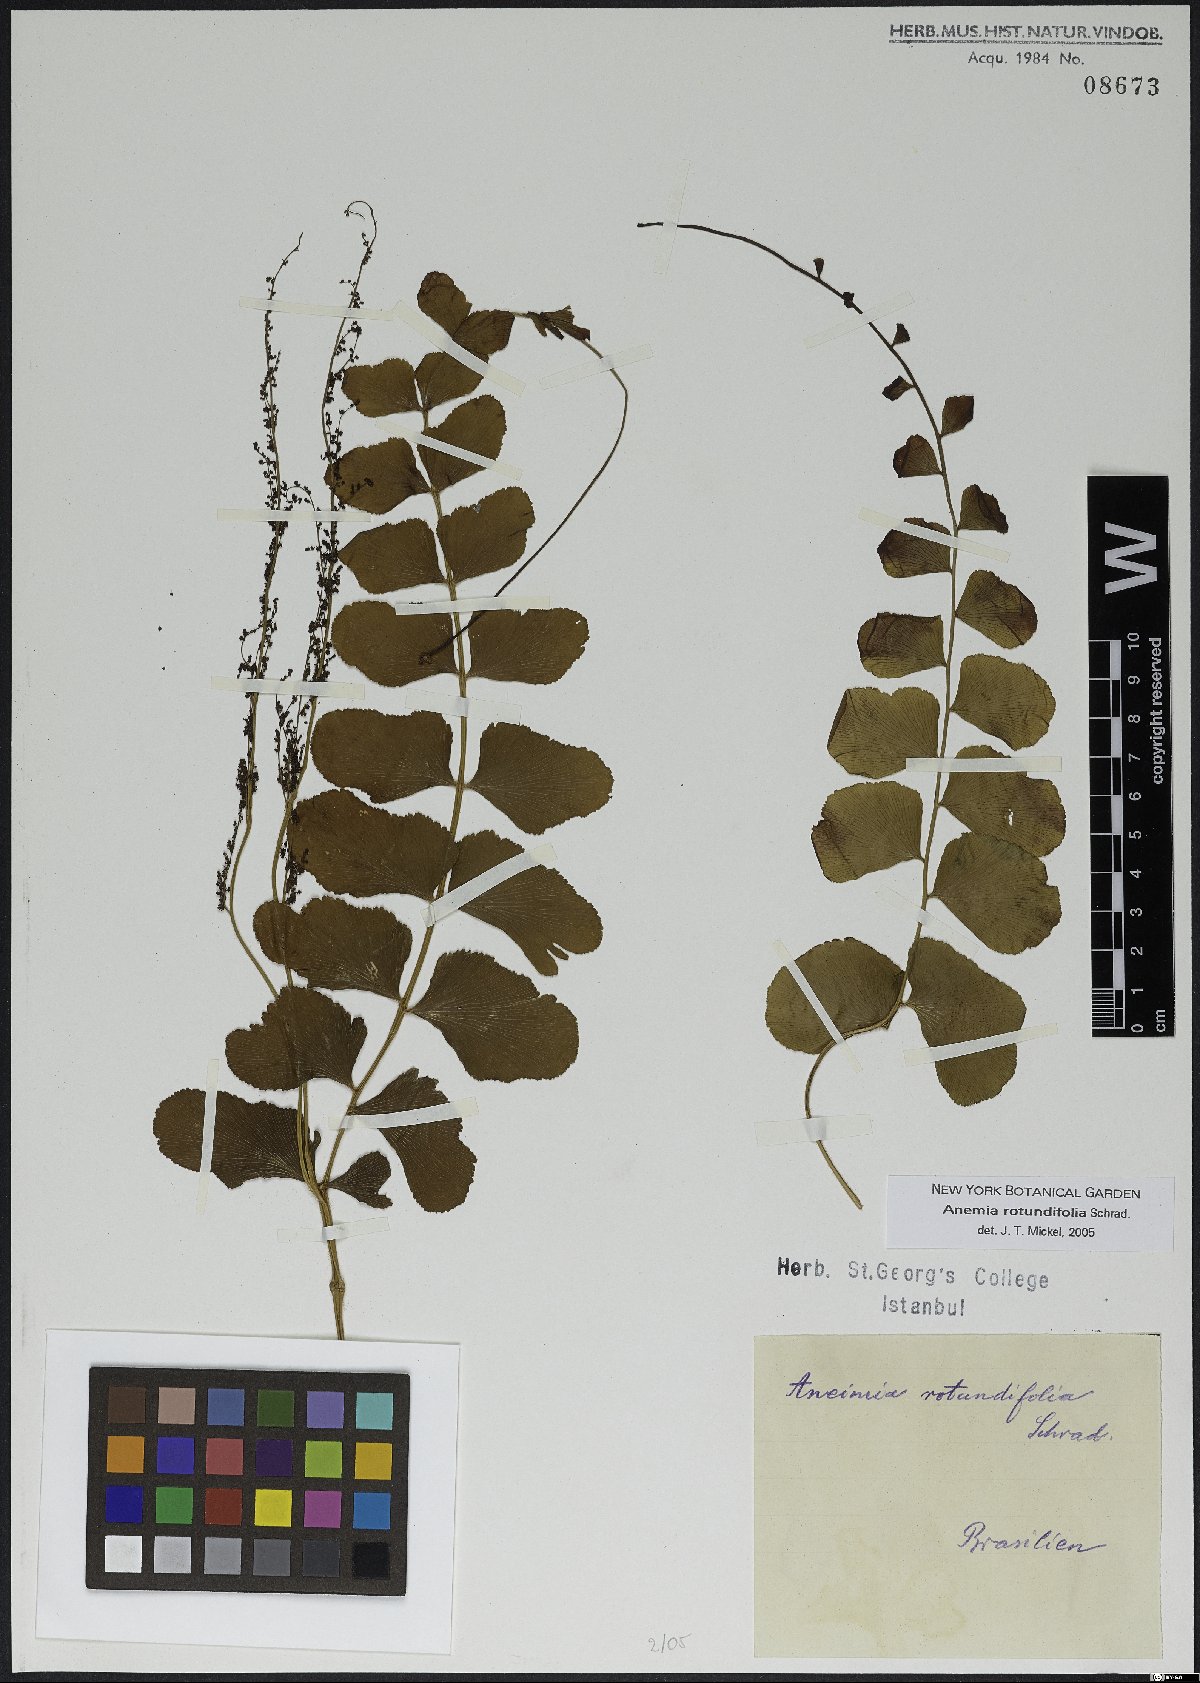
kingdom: Plantae
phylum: Tracheophyta
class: Polypodiopsida
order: Schizaeales
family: Anemiaceae
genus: Anemia
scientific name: Anemia rotundifolia
